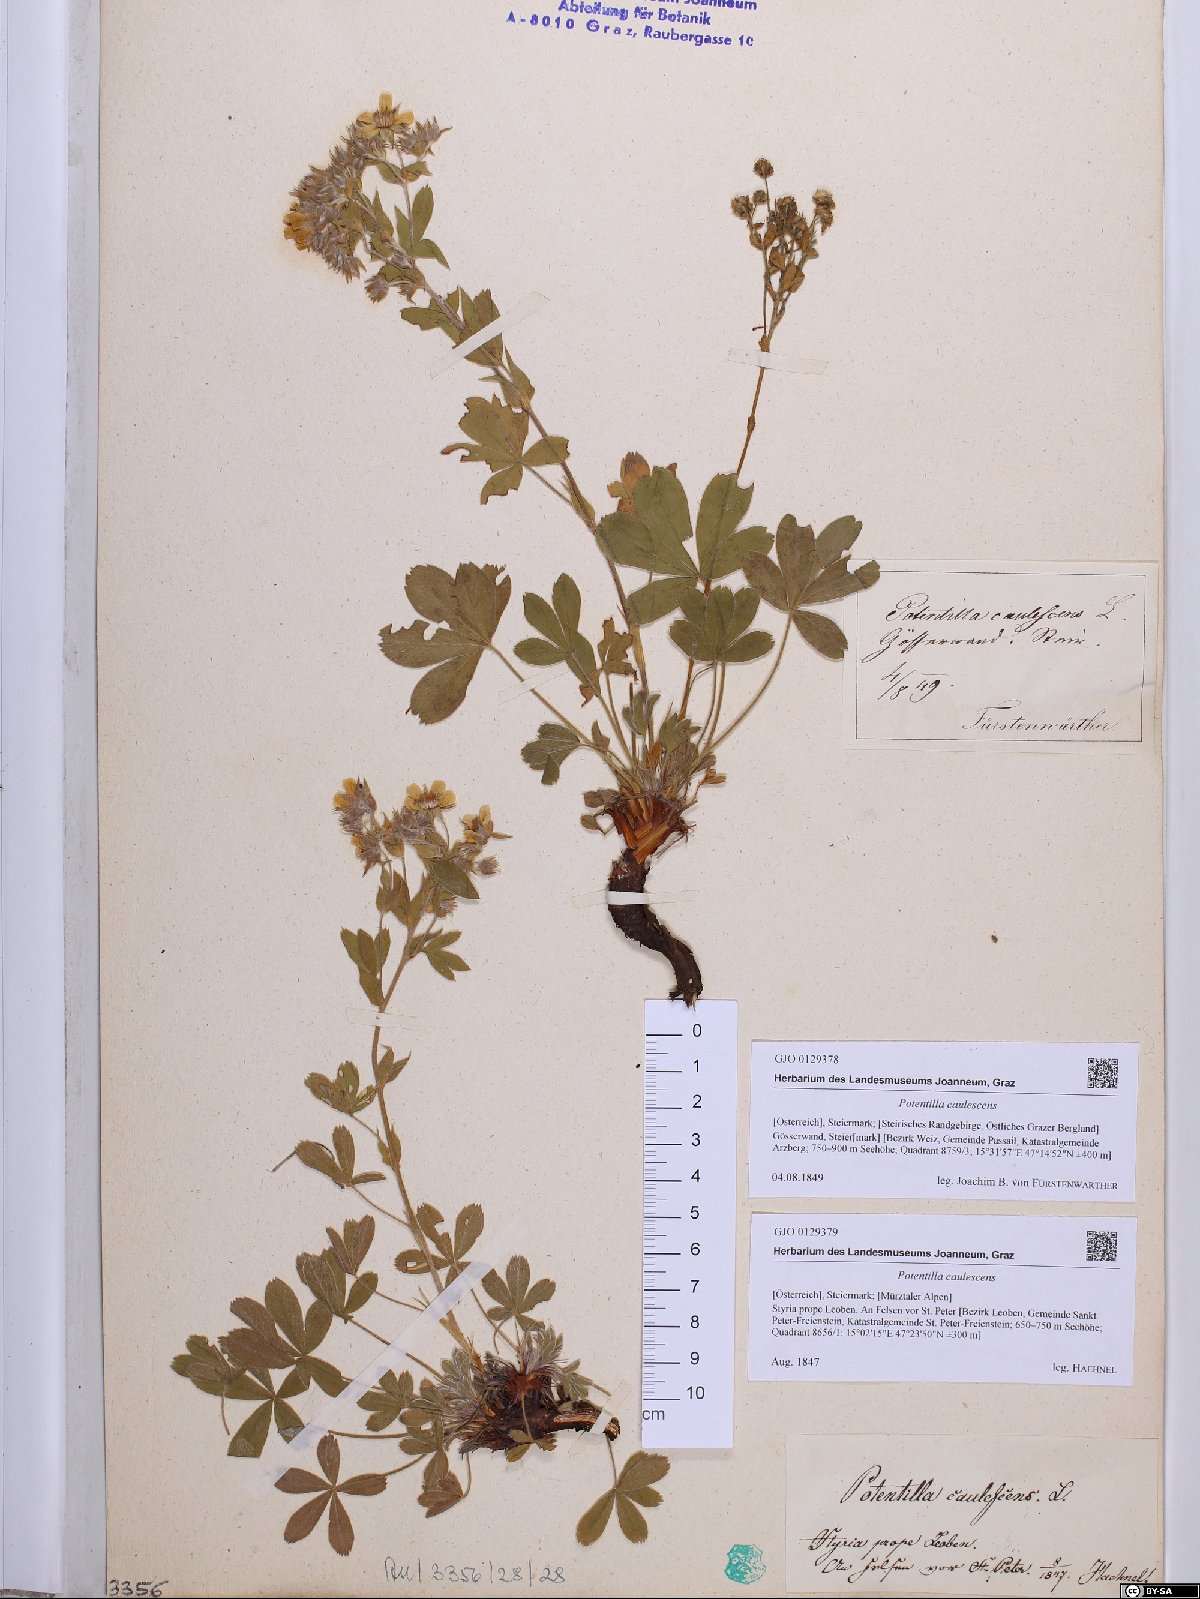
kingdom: Plantae
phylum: Tracheophyta
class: Magnoliopsida
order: Rosales
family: Rosaceae
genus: Potentilla
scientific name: Potentilla caulescens
